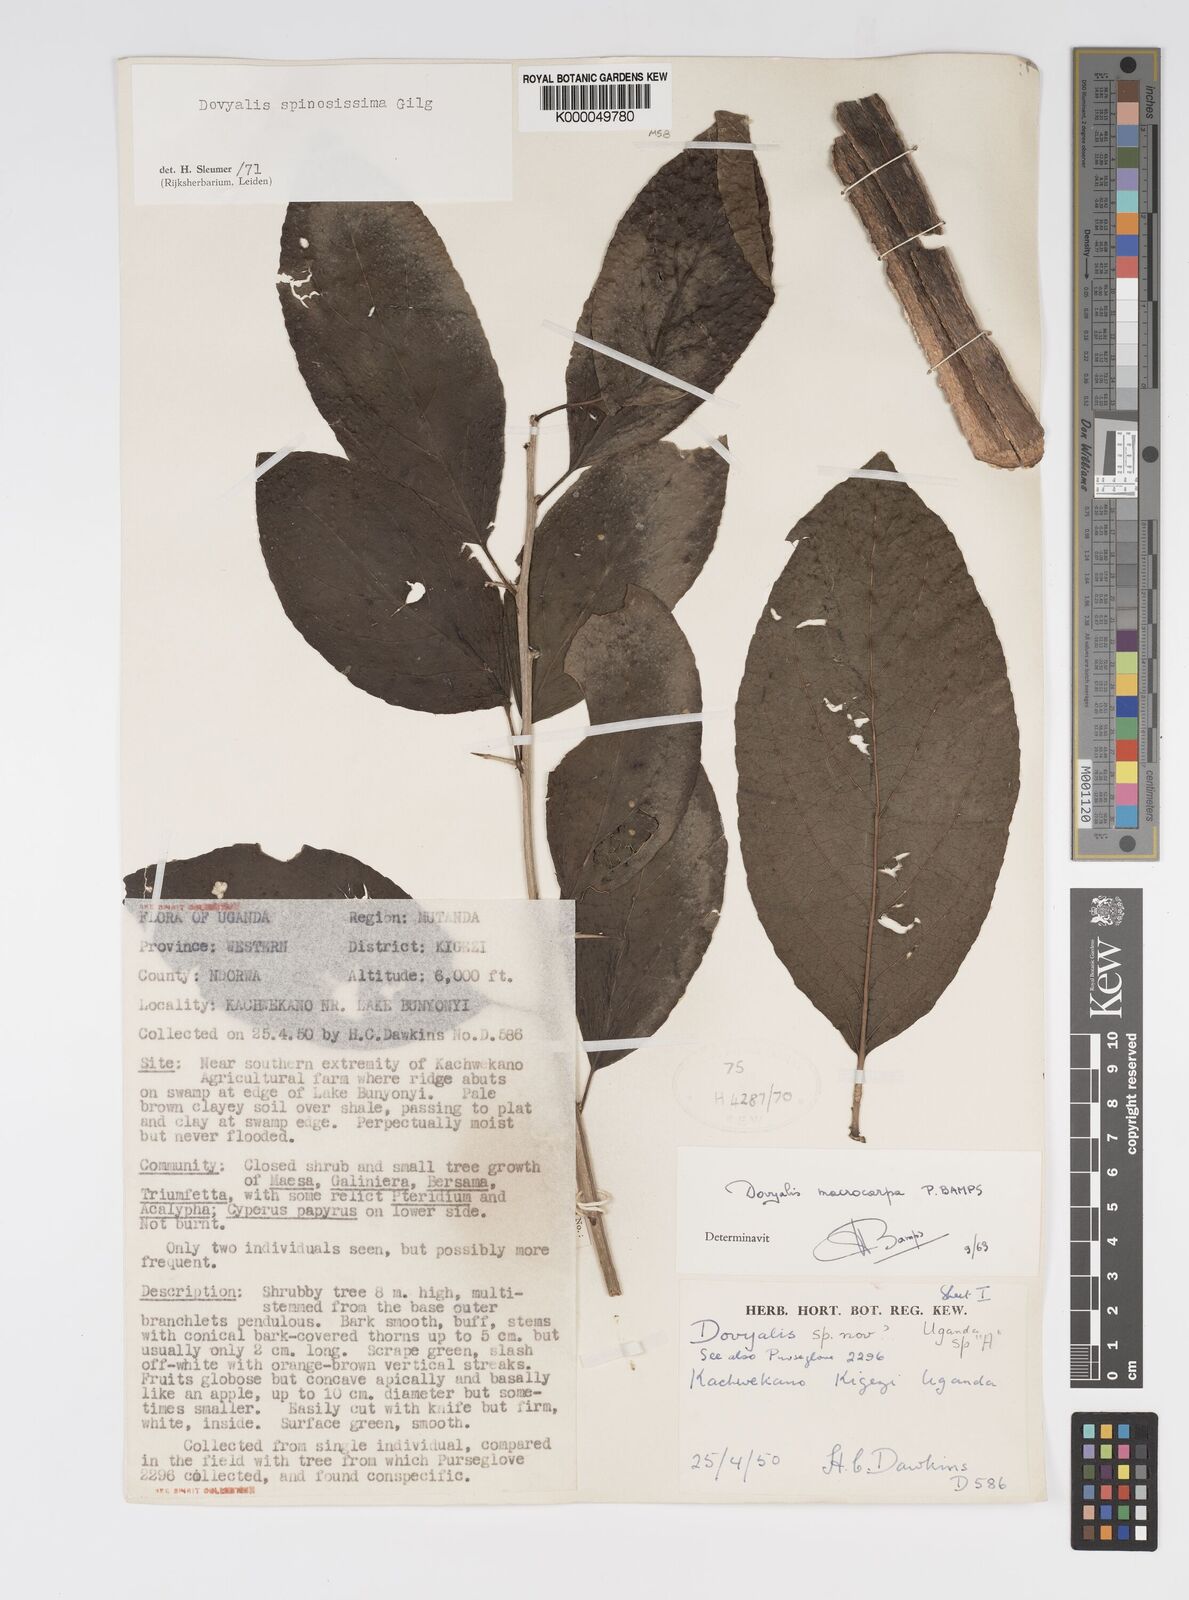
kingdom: Plantae
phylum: Tracheophyta
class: Magnoliopsida
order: Malpighiales
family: Salicaceae
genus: Dovyalis
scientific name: Dovyalis spinosissima
